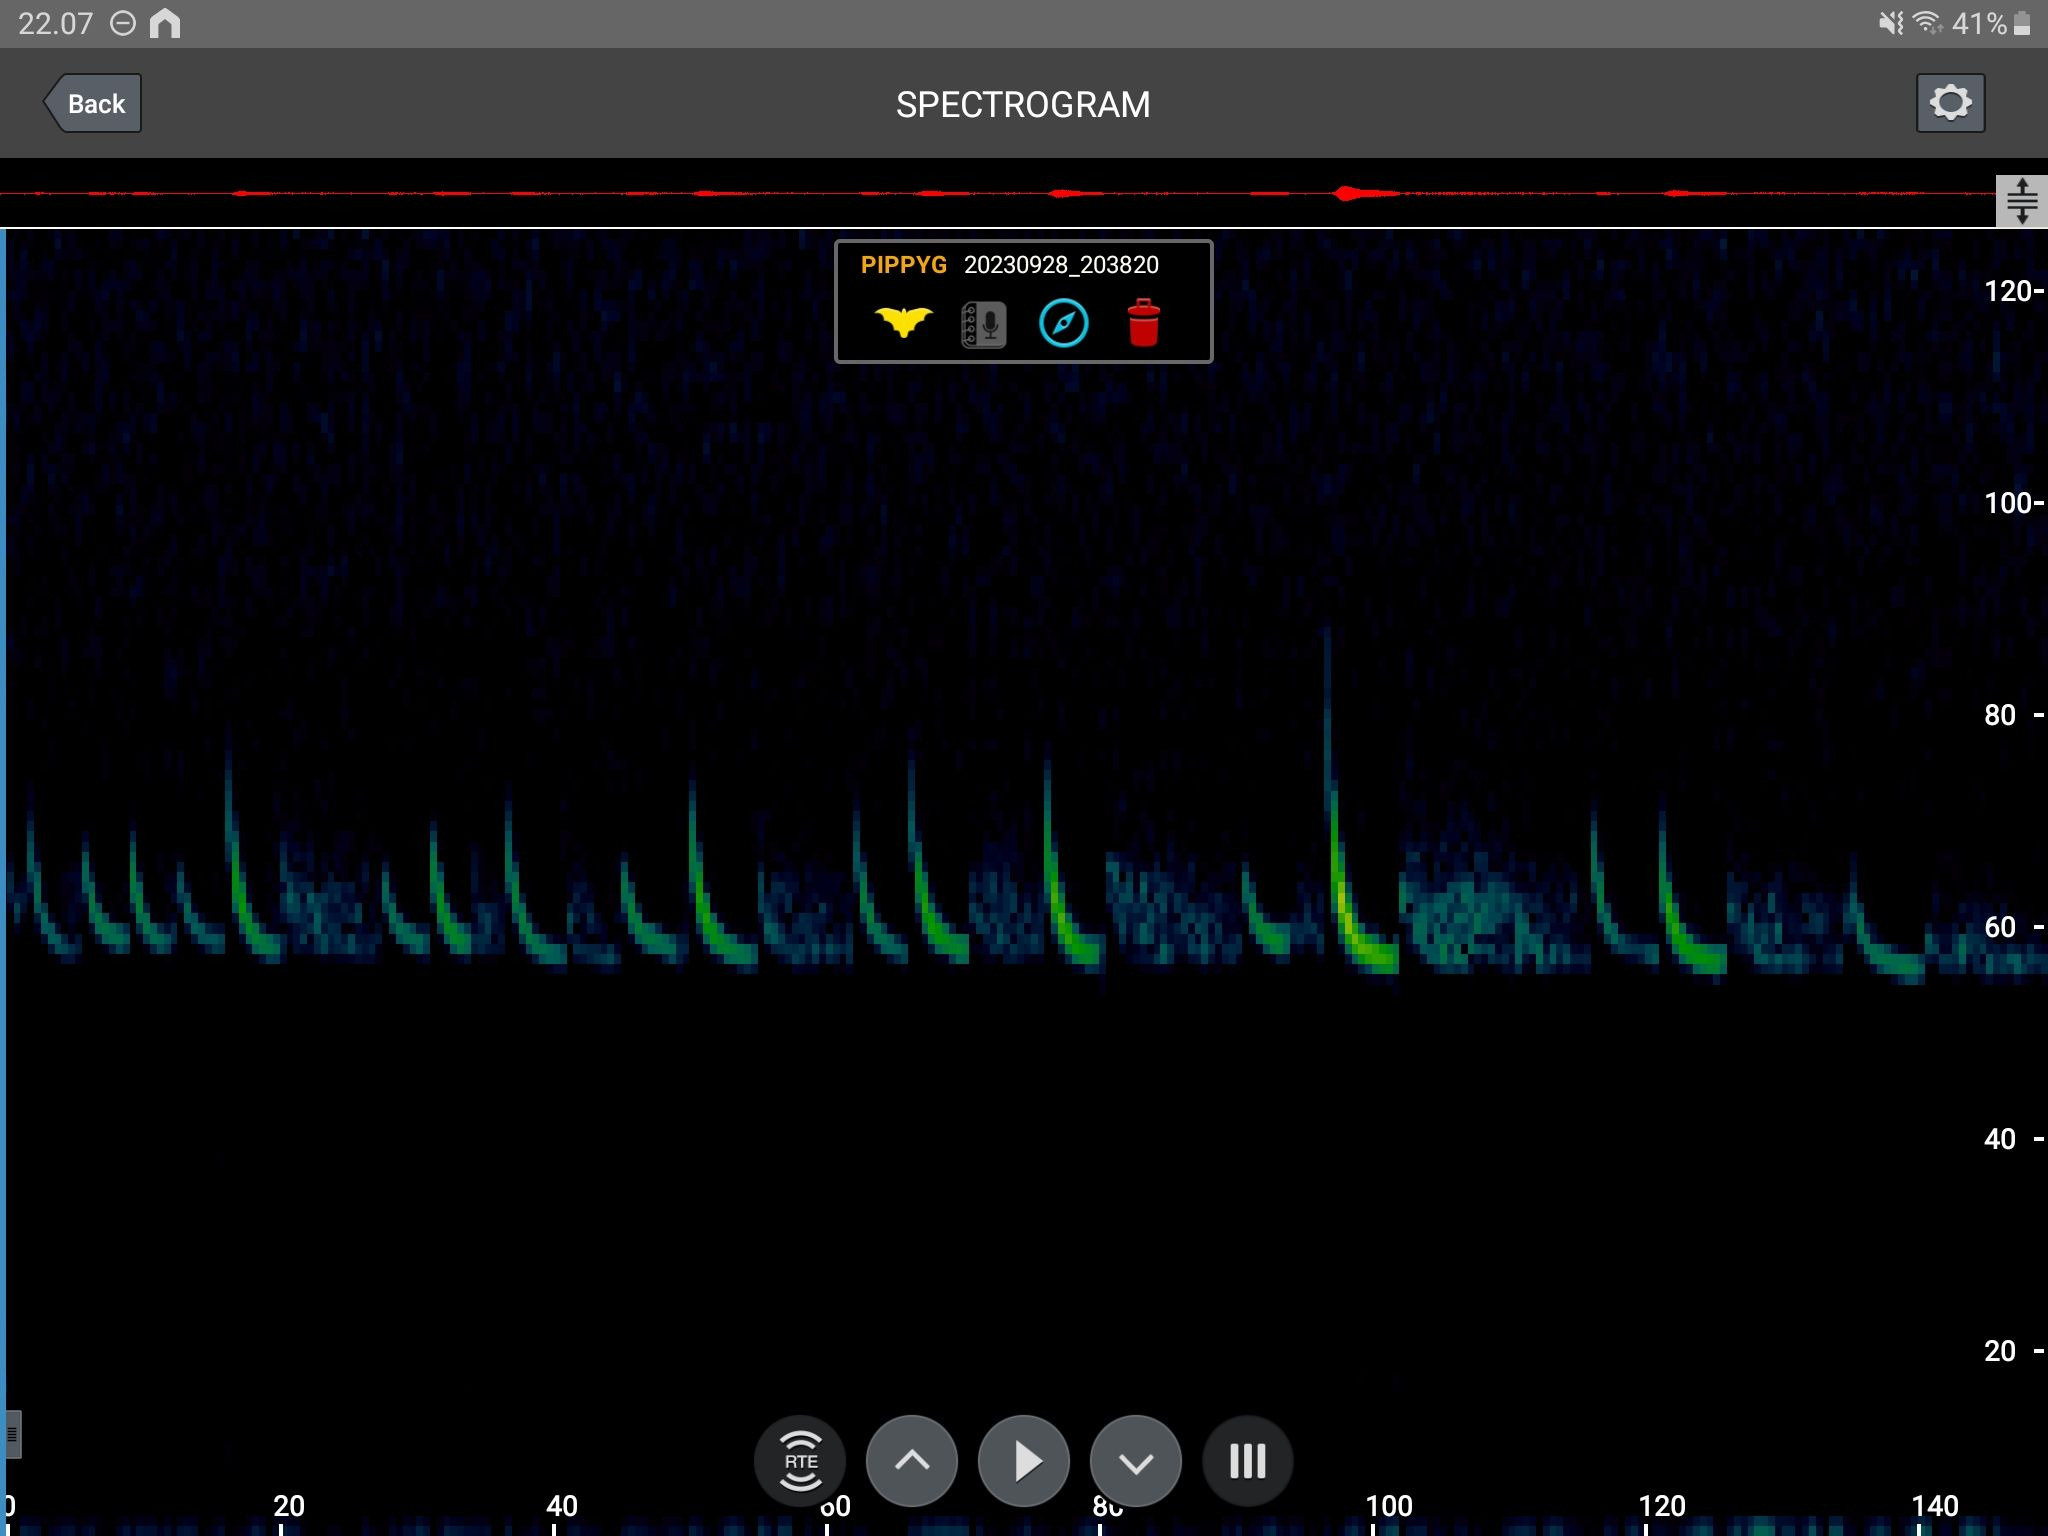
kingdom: Animalia
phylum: Chordata
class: Mammalia
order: Chiroptera
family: Vespertilionidae
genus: Pipistrellus
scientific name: Pipistrellus pygmaeus
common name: Dværgflagermus
